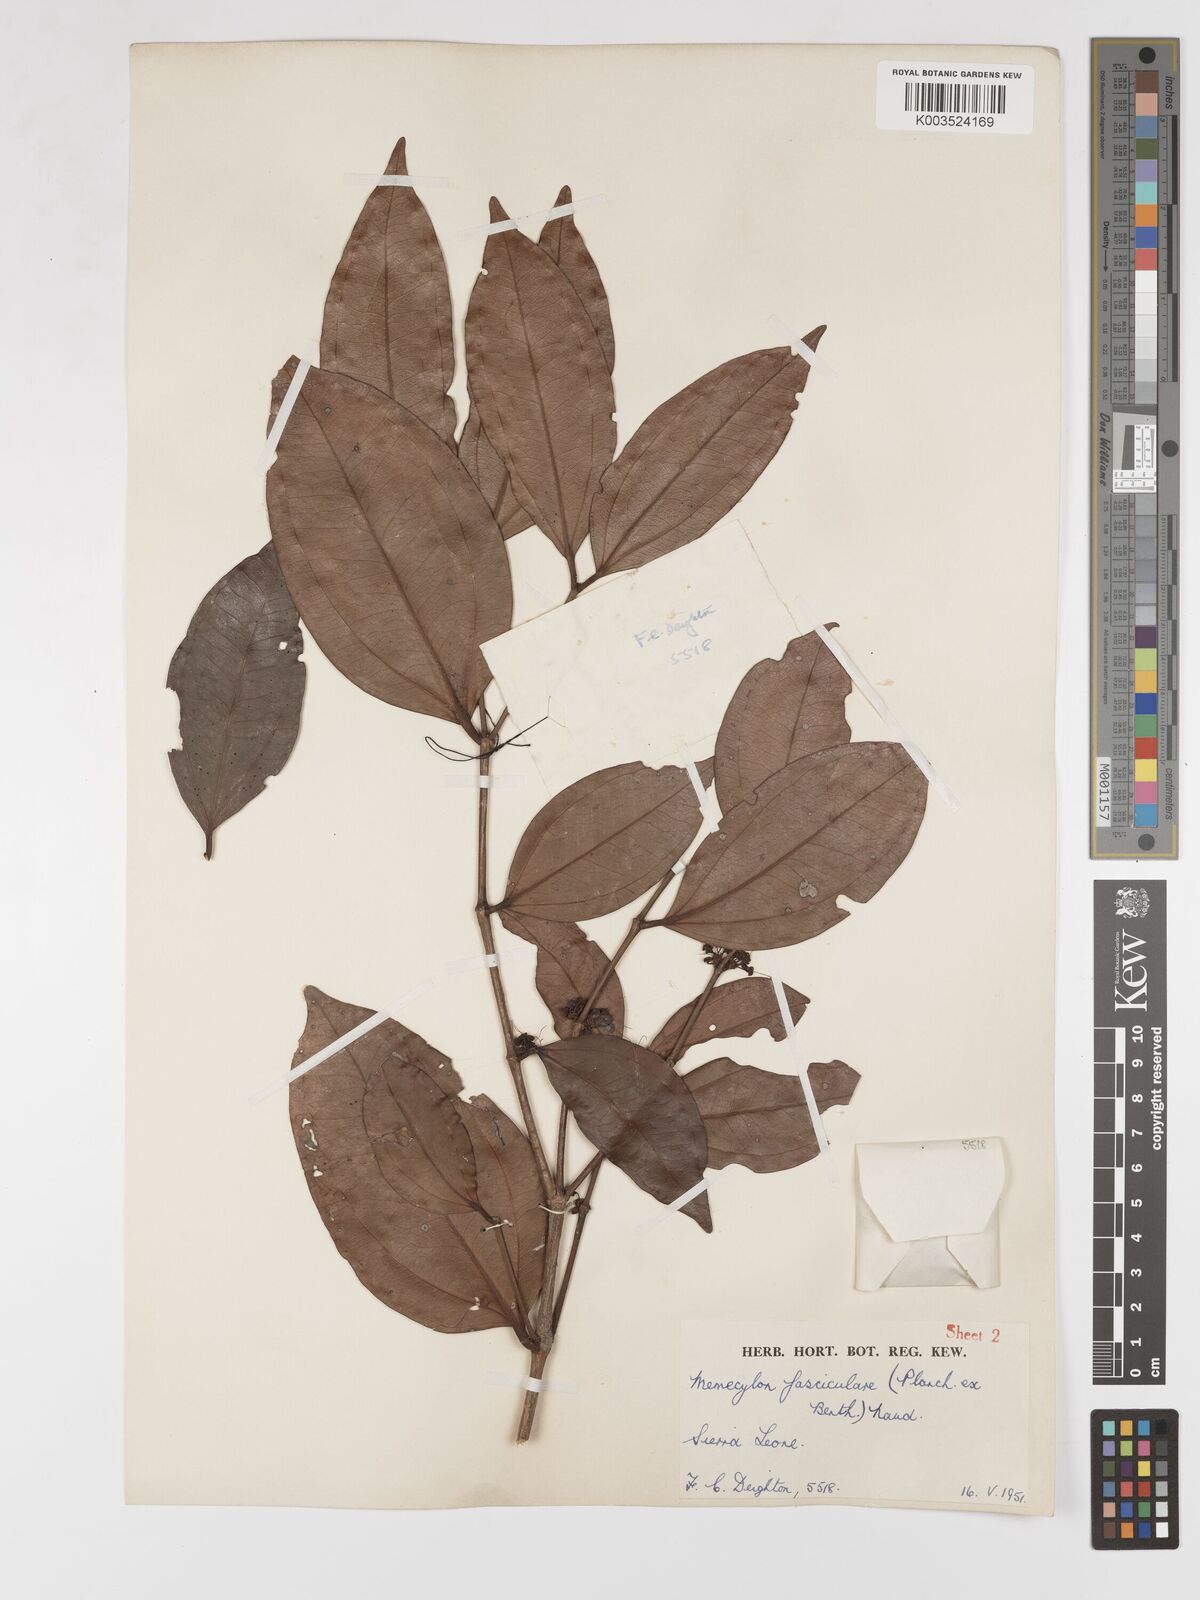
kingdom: Plantae
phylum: Tracheophyta
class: Magnoliopsida
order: Myrtales
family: Melastomataceae
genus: Warneckea
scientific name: Warneckea fascicularis
